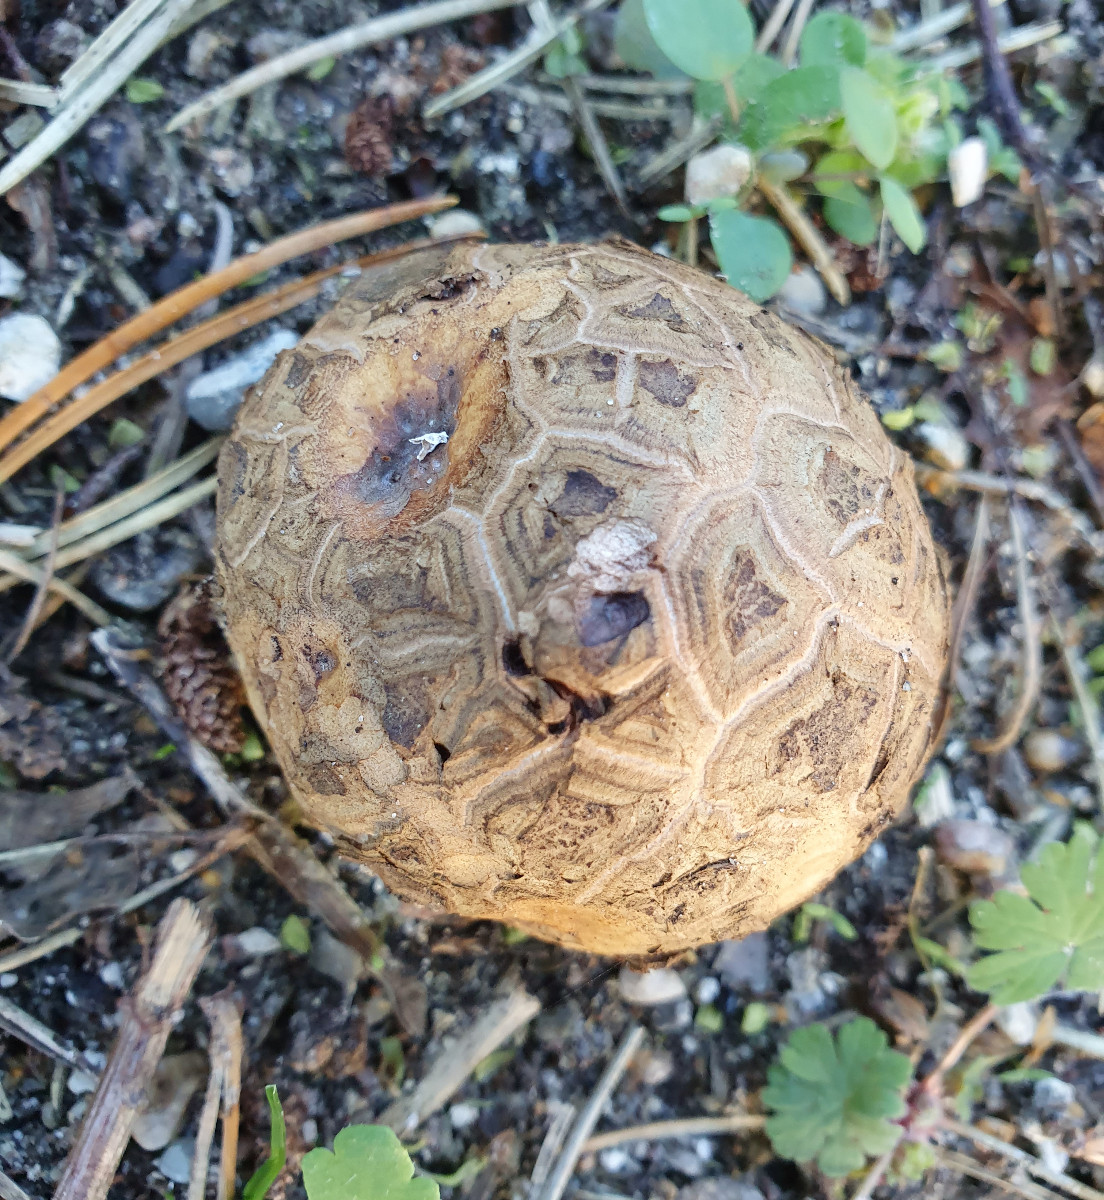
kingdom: Fungi
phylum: Basidiomycota
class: Agaricomycetes
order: Geastrales
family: Geastraceae
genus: Geastrum
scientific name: Geastrum melanocephalum
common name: håret stjernebold
